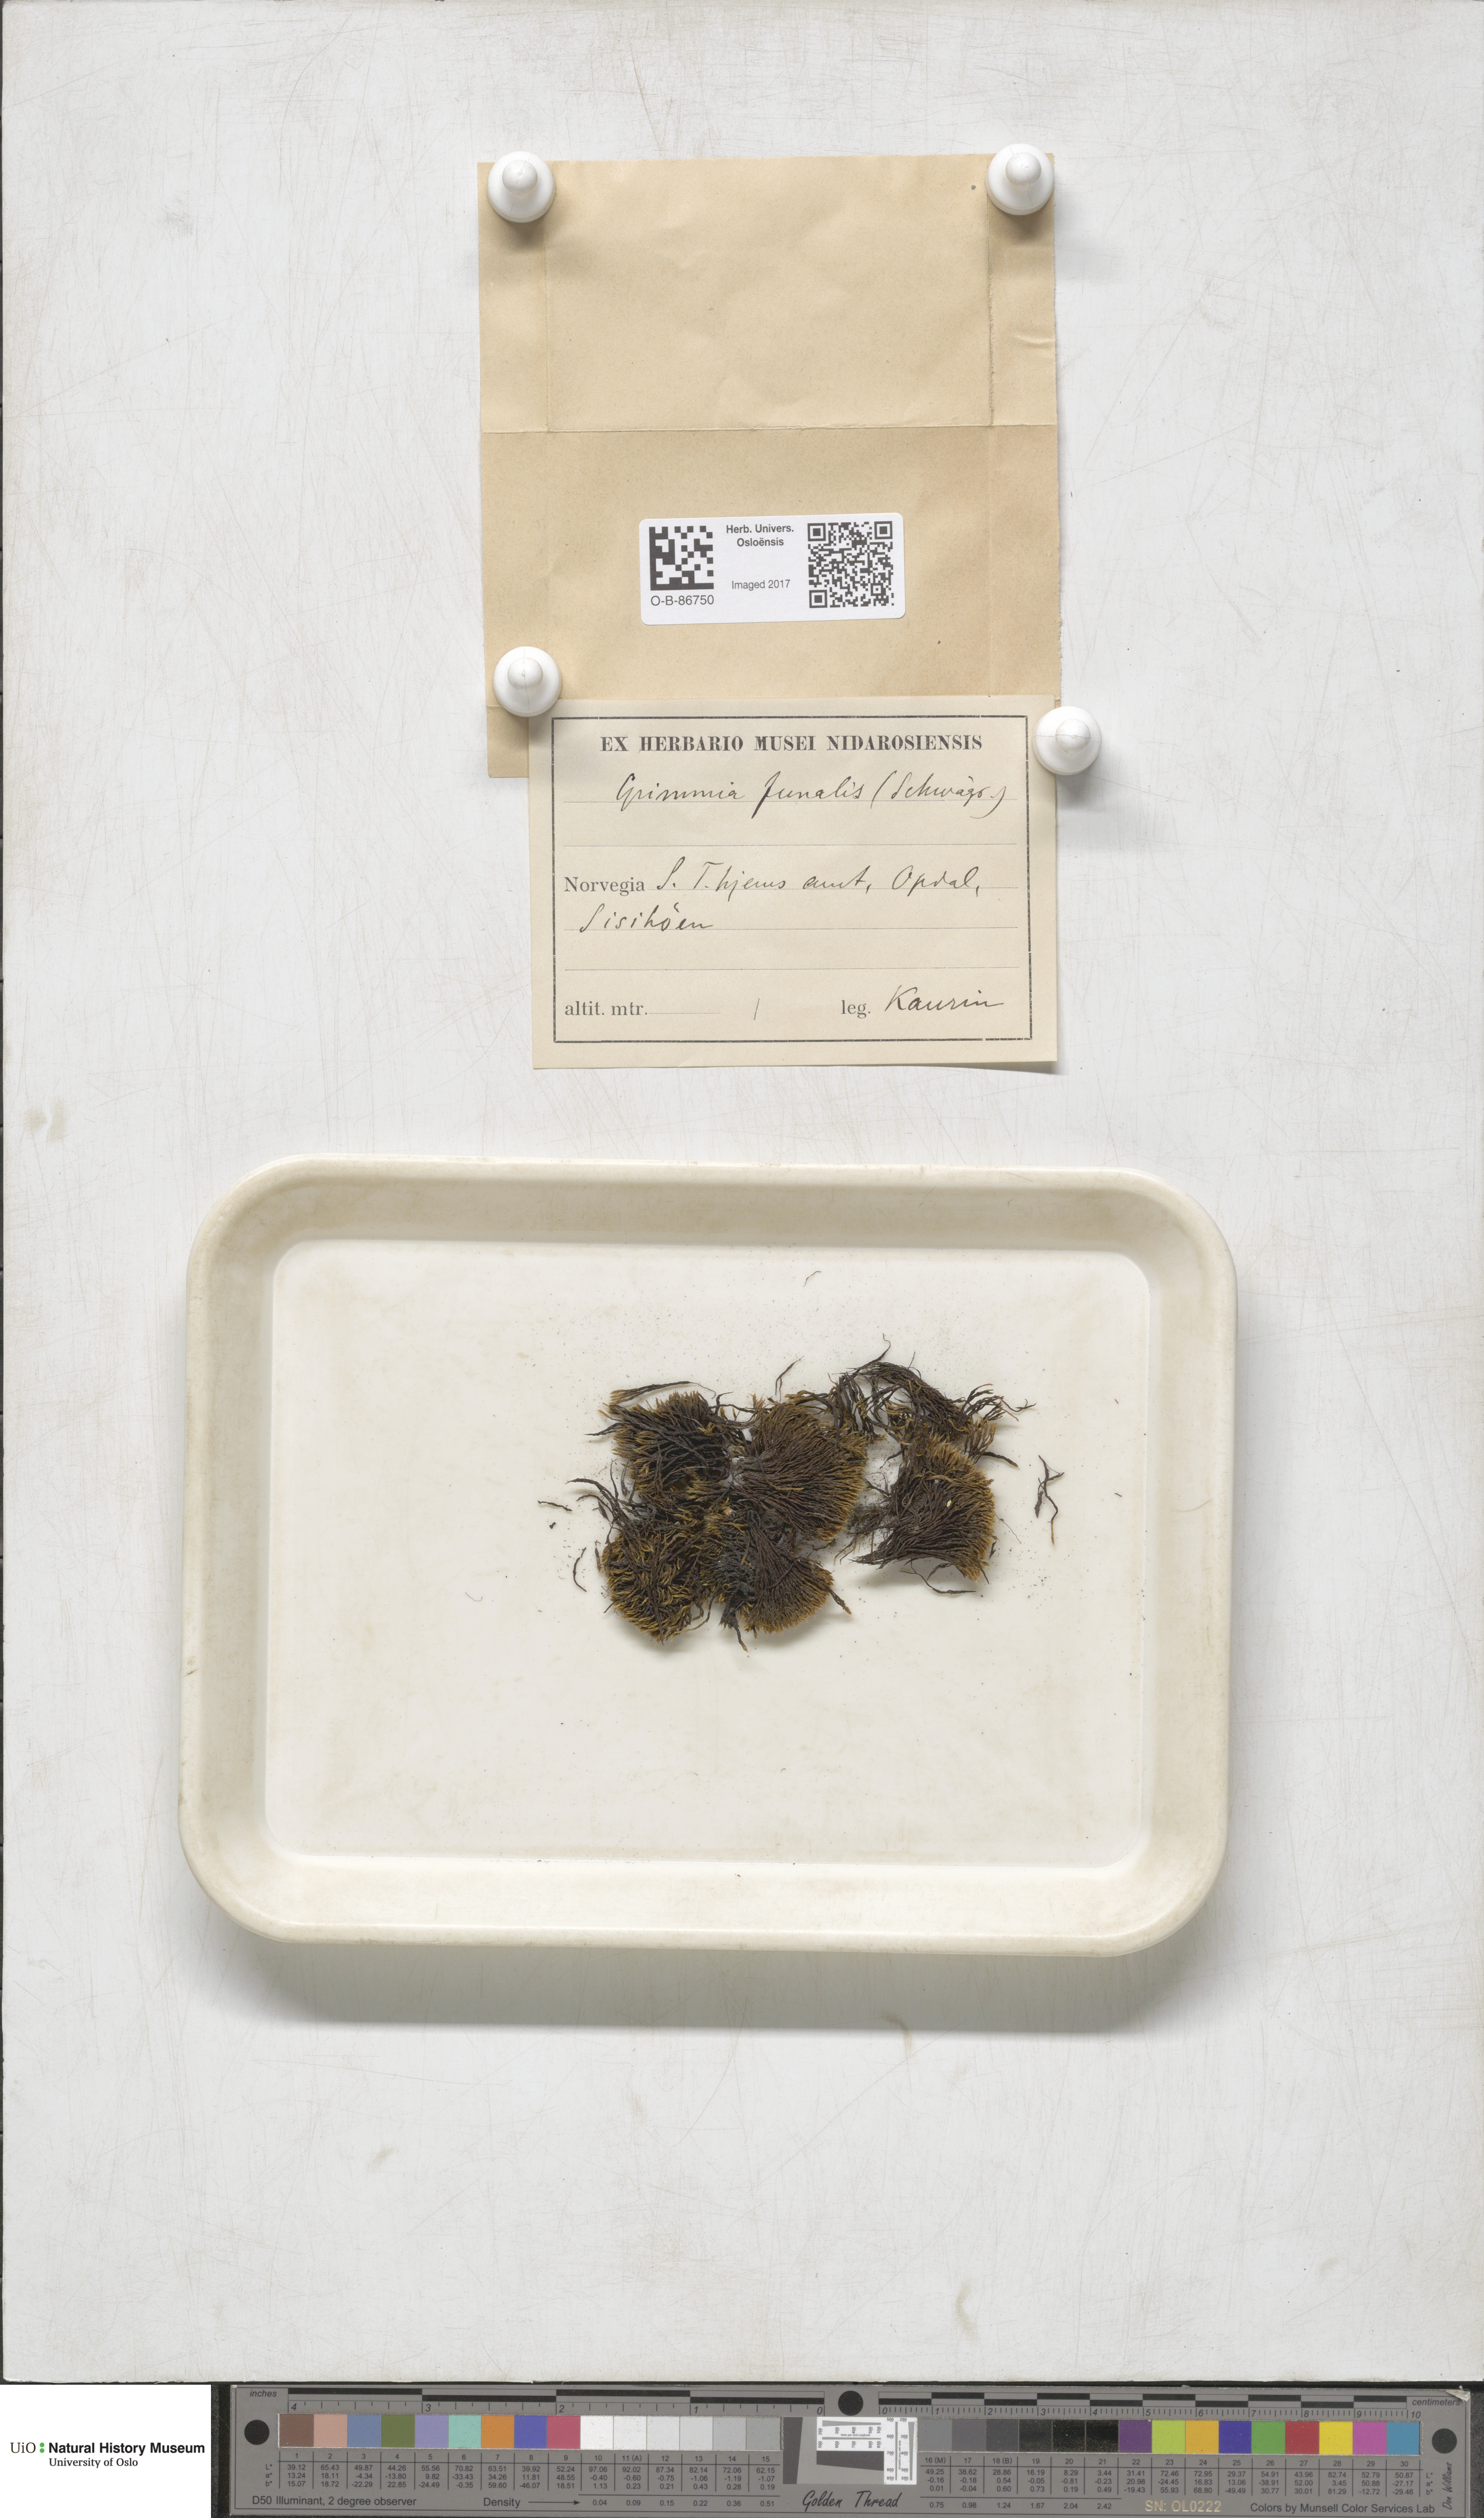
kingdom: Plantae
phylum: Bryophyta
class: Bryopsida
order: Grimmiales
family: Grimmiaceae
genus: Grimmia
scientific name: Grimmia funalis
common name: String grimmia
